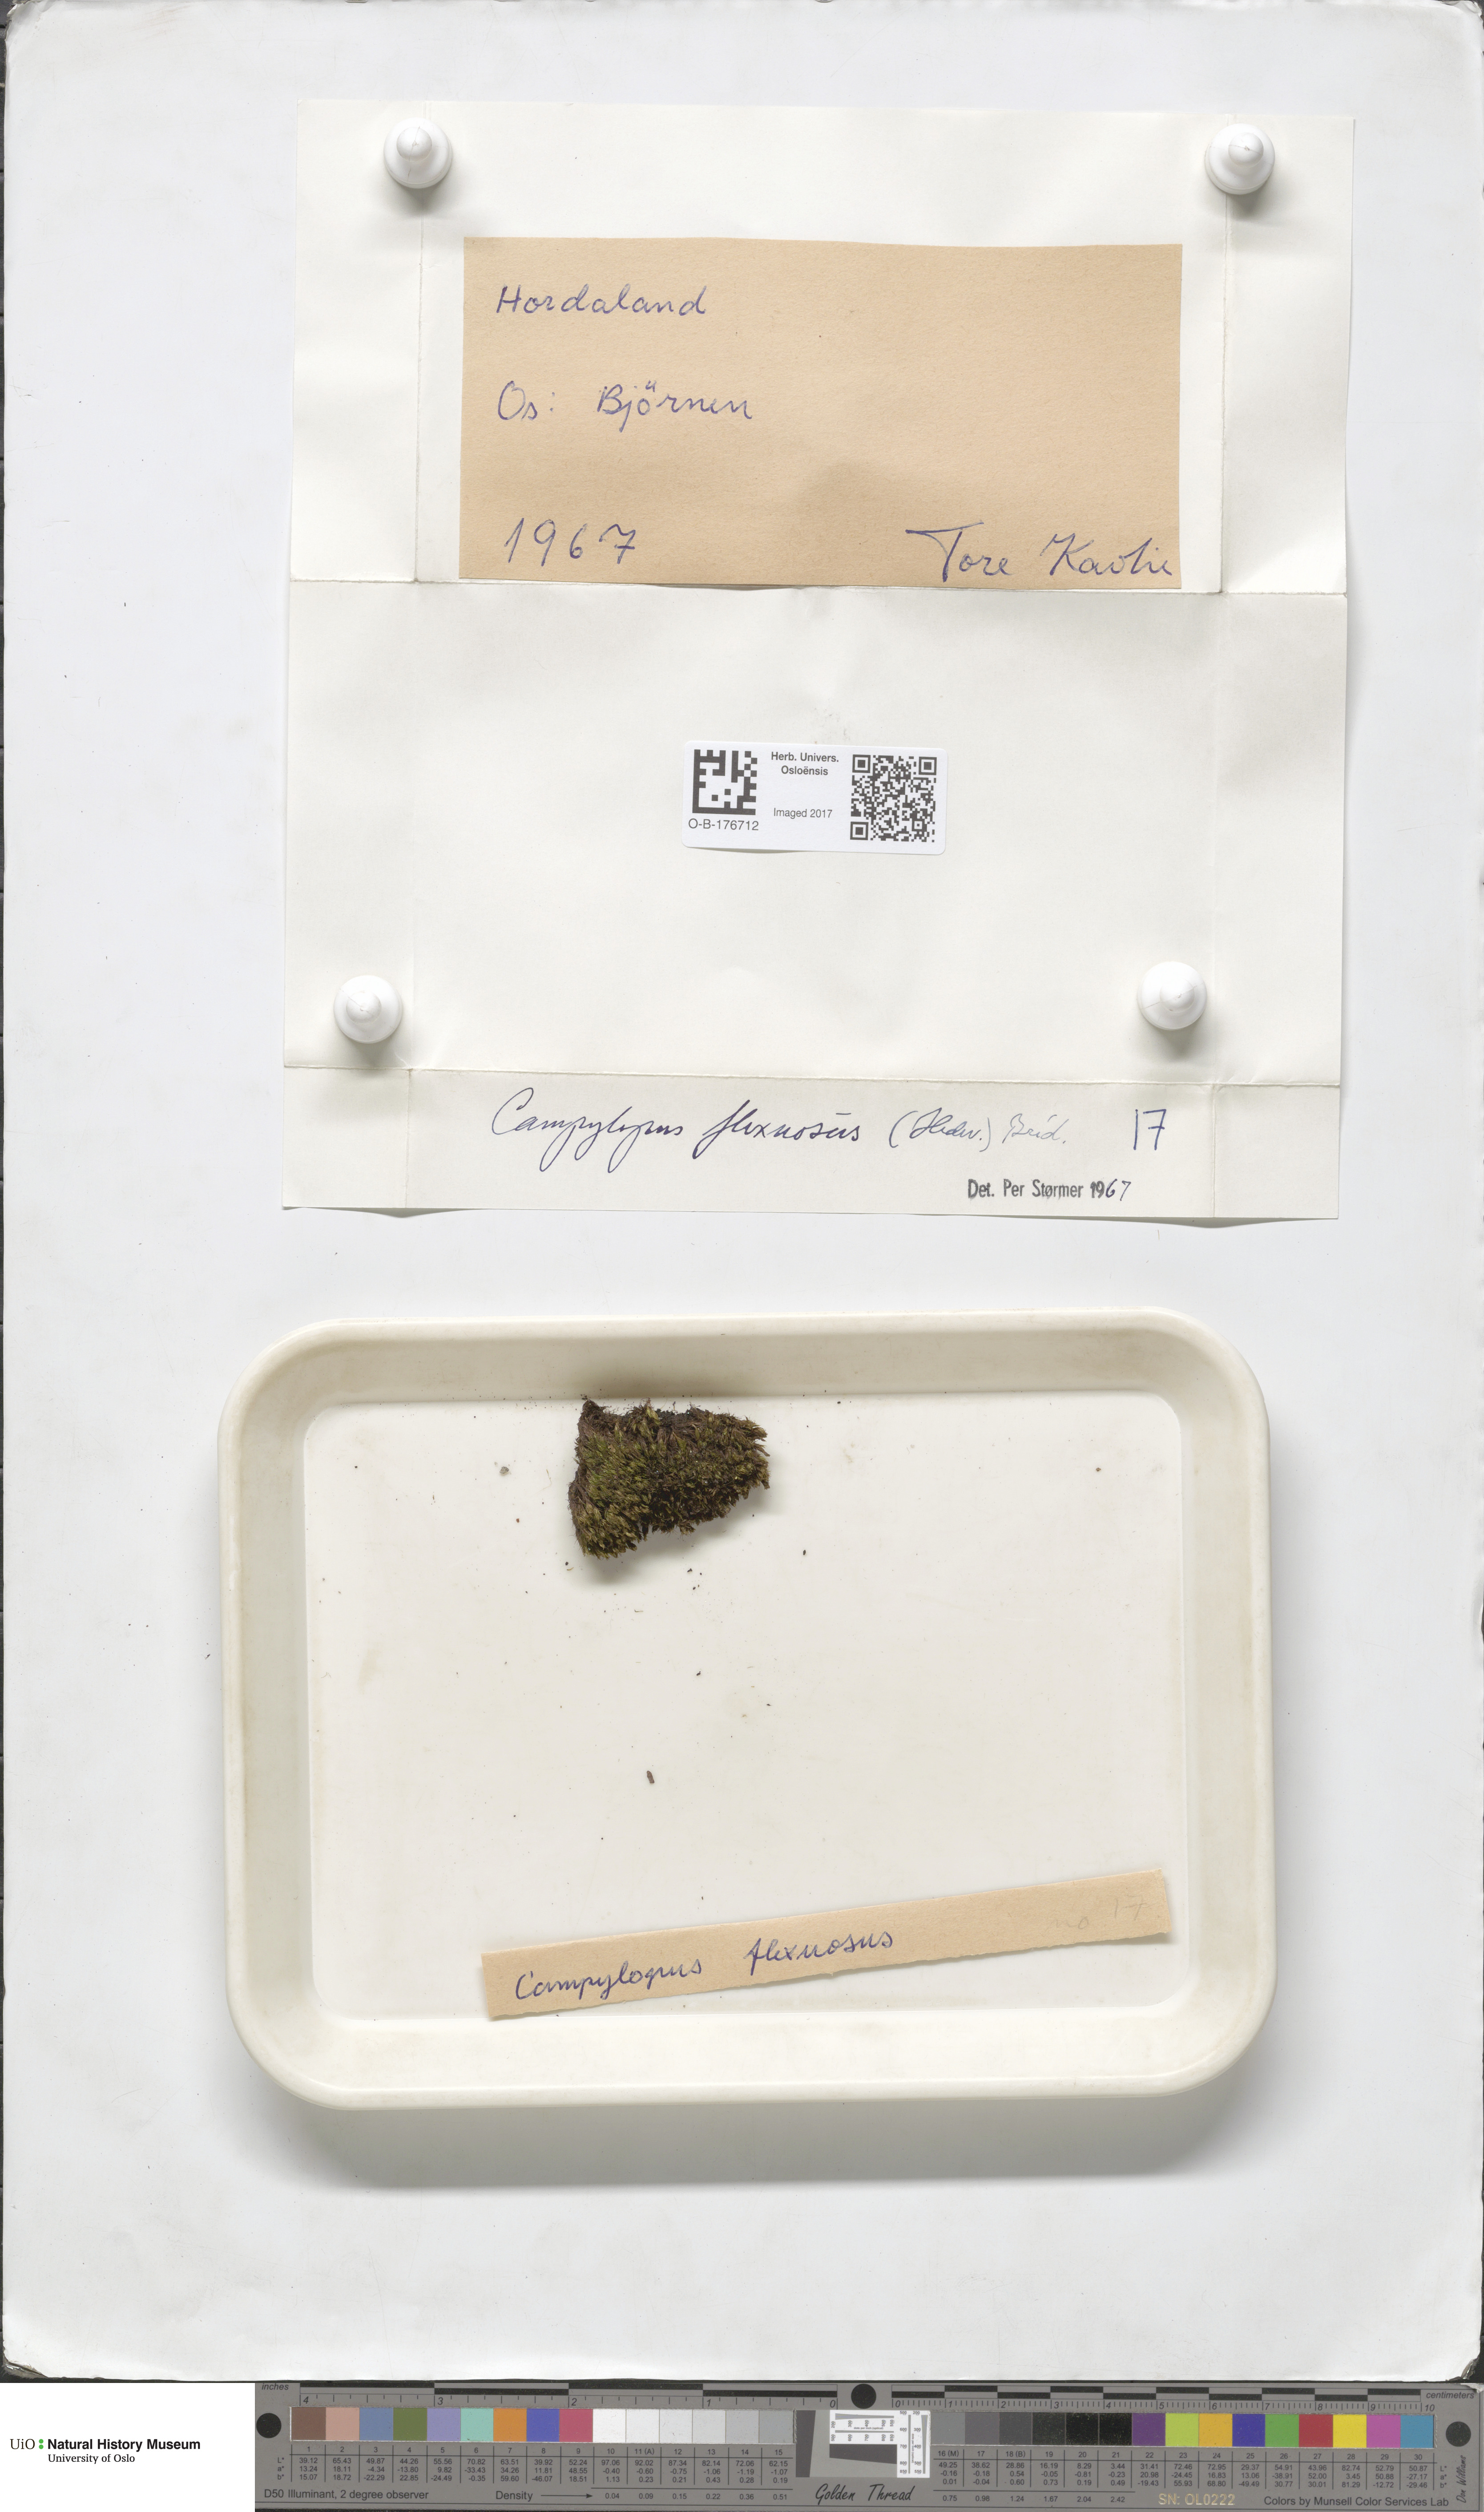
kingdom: Plantae
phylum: Bryophyta
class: Bryopsida
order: Dicranales
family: Leucobryaceae
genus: Campylopus
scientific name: Campylopus flexuosus
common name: Rusty swan-neck moss
